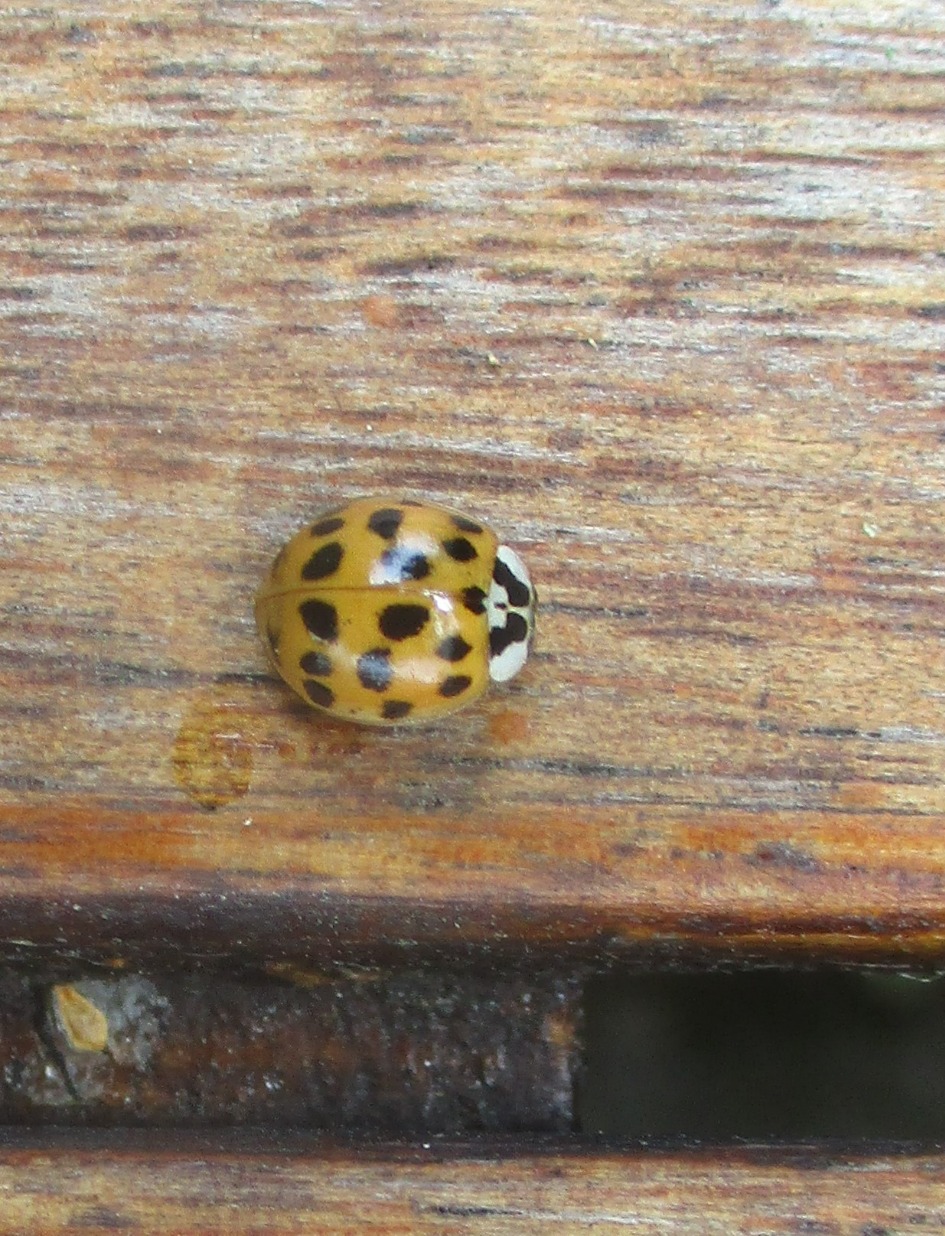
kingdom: Animalia
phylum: Arthropoda
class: Insecta
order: Coleoptera
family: Coccinellidae
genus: Harmonia
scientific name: Harmonia axyridis
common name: Harlekinmariehøne
